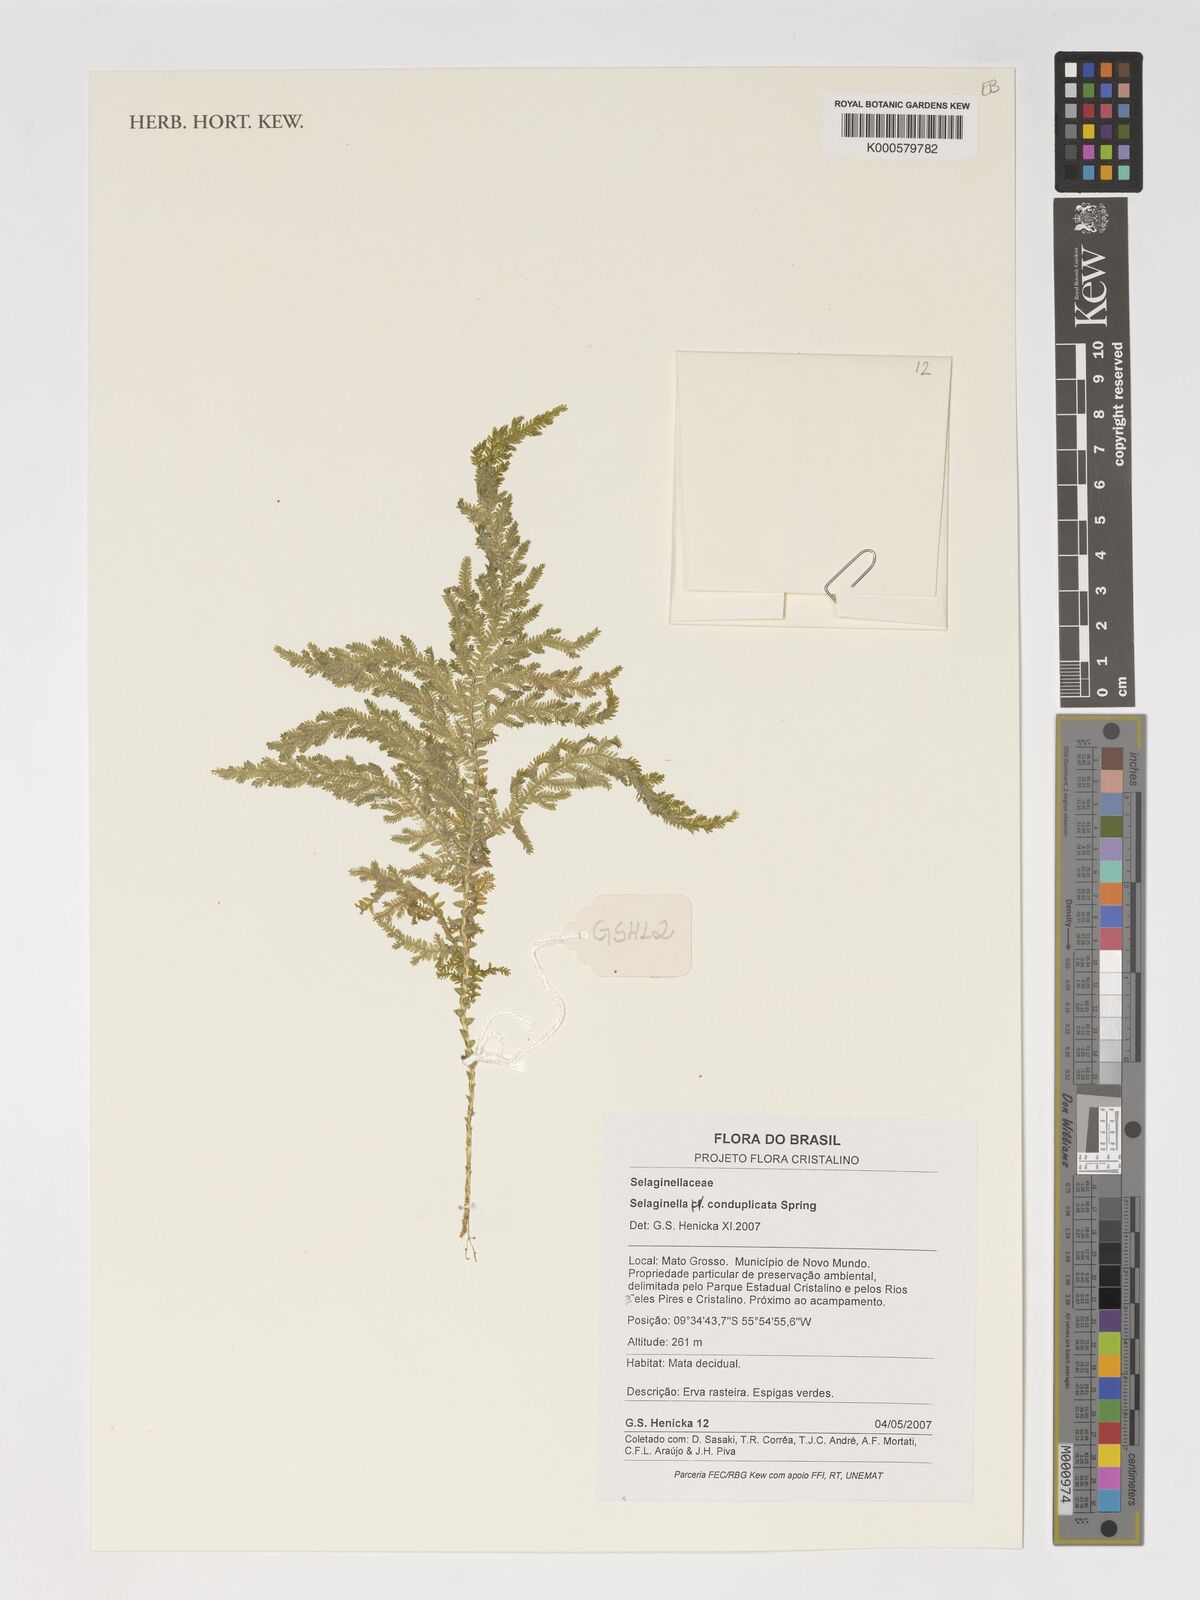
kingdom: Plantae
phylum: Tracheophyta
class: Lycopodiopsida
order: Selaginellales
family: Selaginellaceae
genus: Selaginella
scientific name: Selaginella conduplicata
